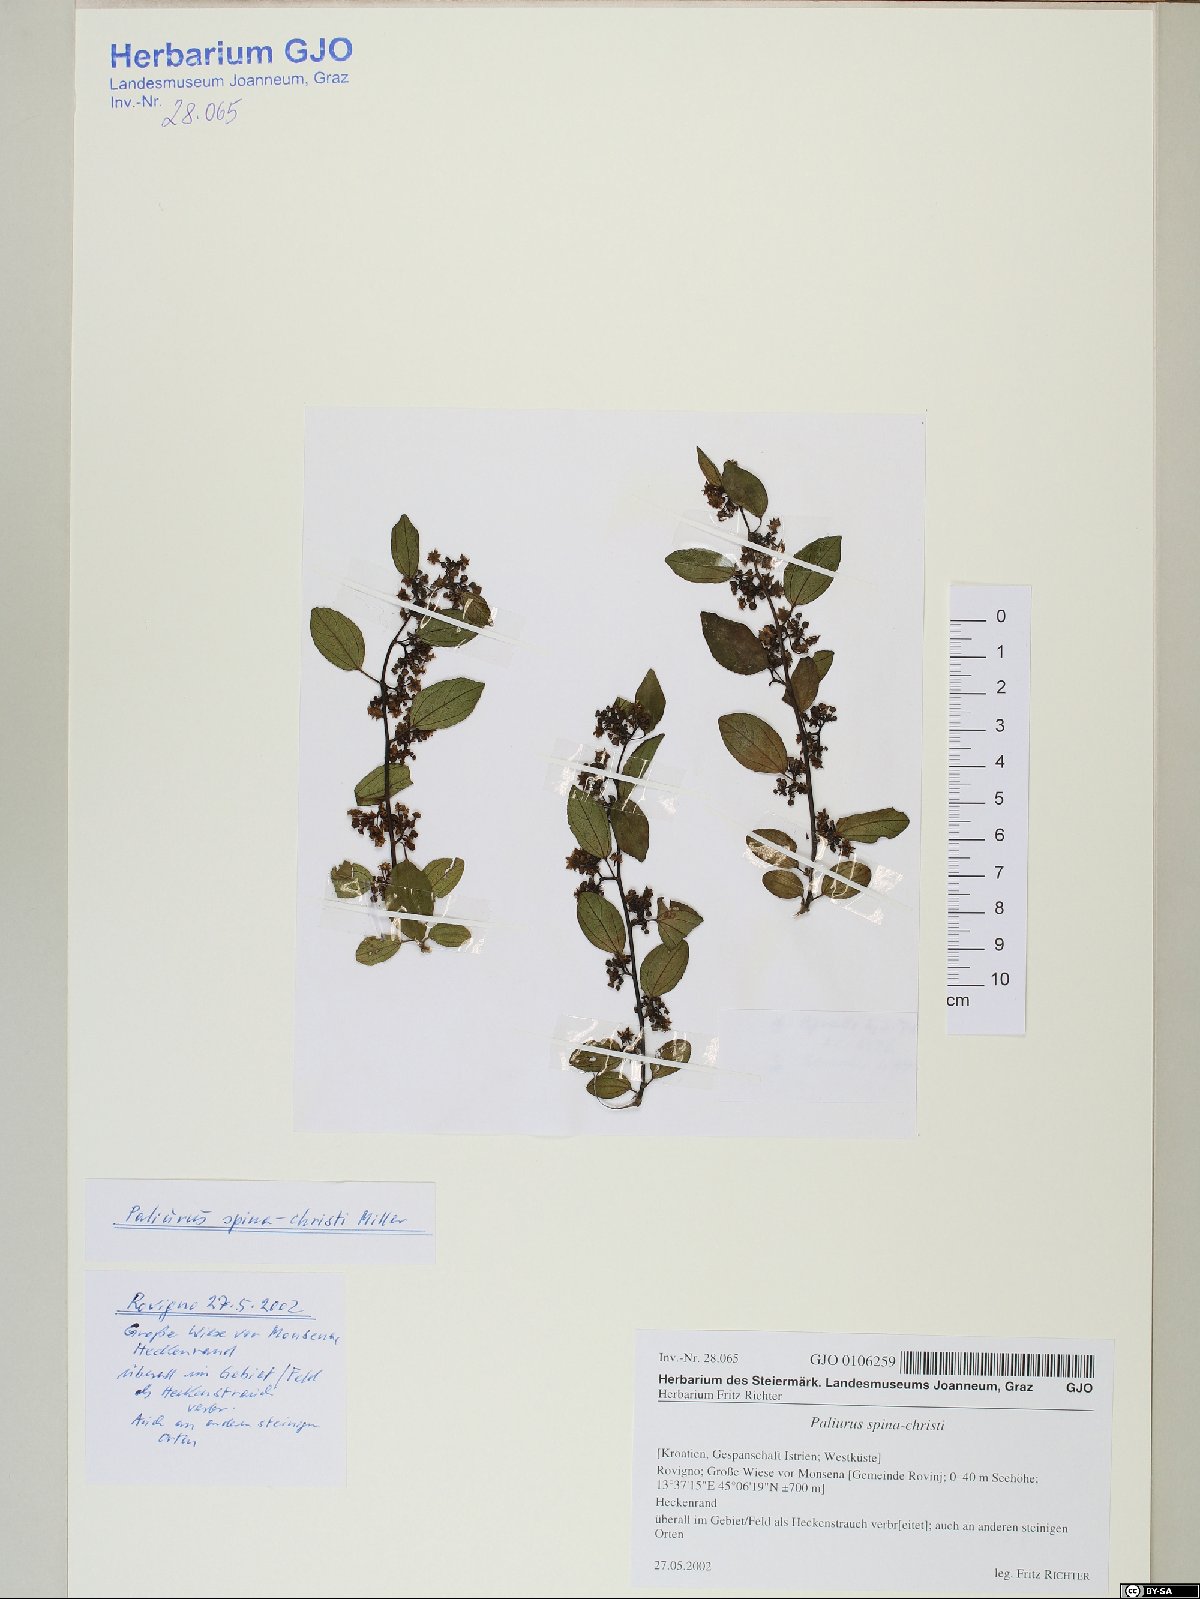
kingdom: Plantae
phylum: Tracheophyta
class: Magnoliopsida
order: Rosales
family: Rhamnaceae
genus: Paliurus
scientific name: Paliurus spina-christi
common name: Jeruselem thorn
